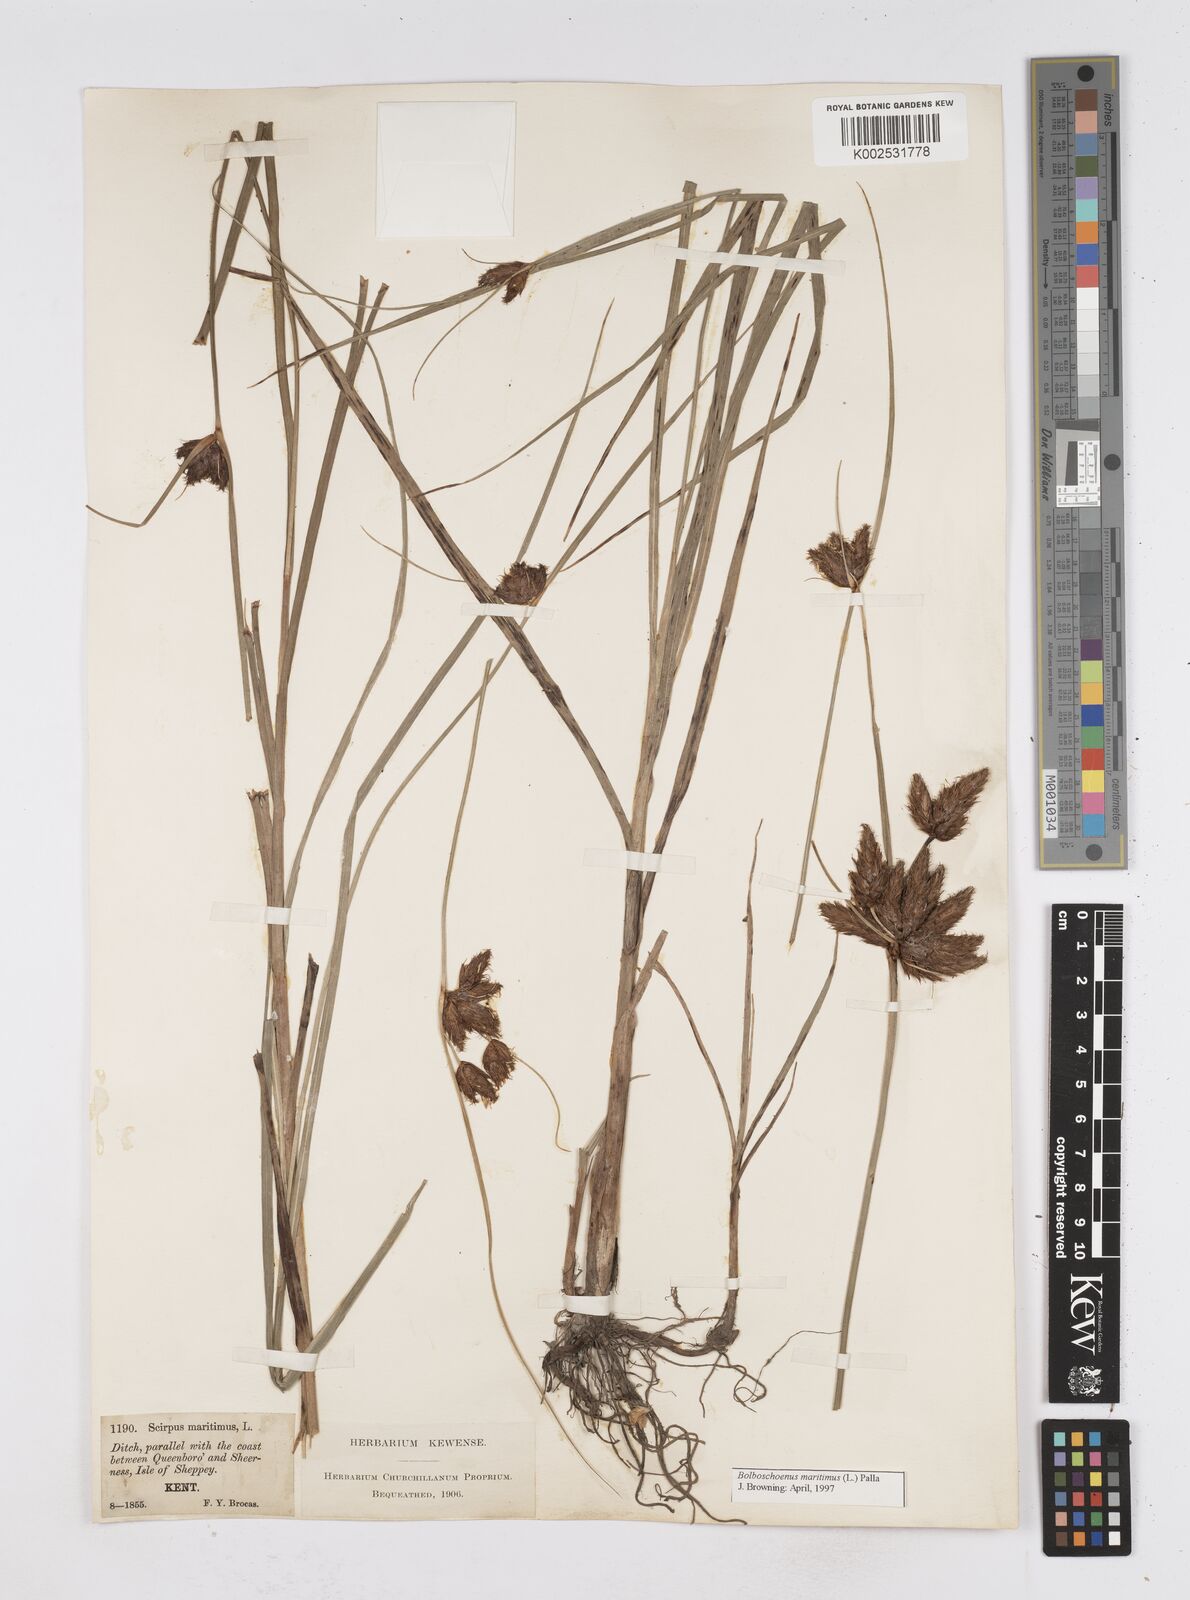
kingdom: Plantae
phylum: Tracheophyta
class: Liliopsida
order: Poales
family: Cyperaceae
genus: Bolboschoenus
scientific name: Bolboschoenus maritimus
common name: Sea club-rush
